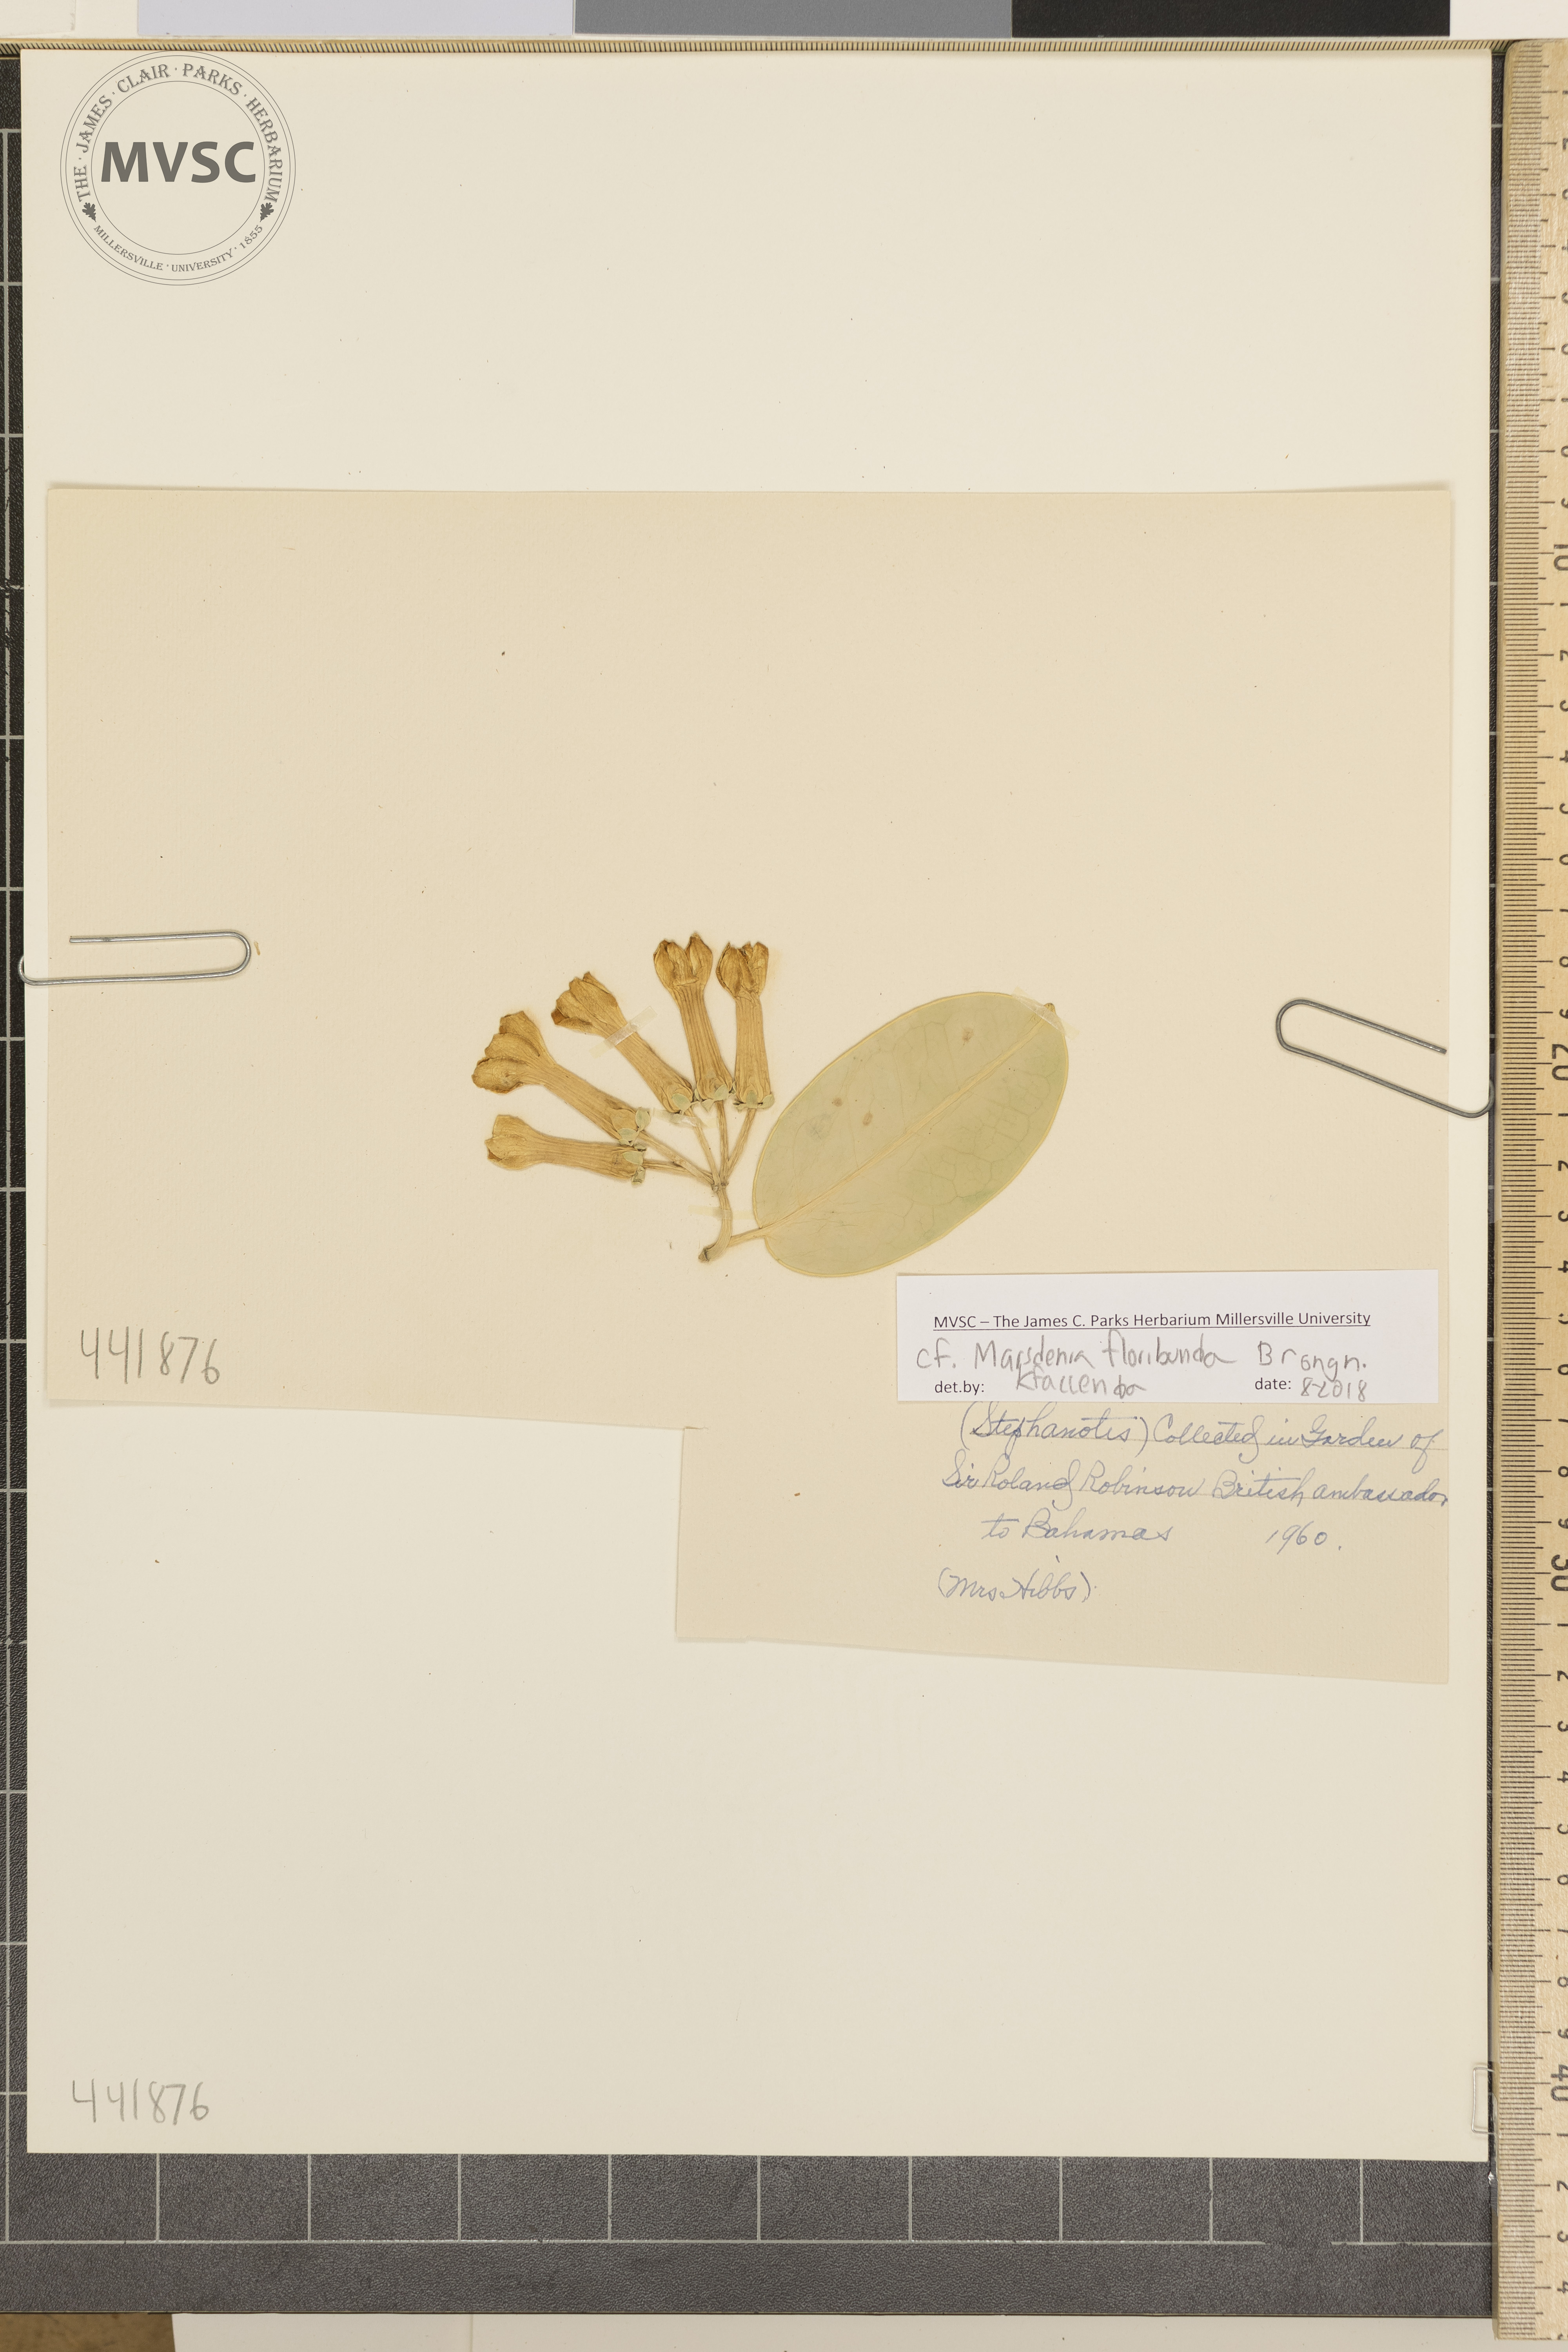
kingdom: Plantae
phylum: Tracheophyta
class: Magnoliopsida
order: Gentianales
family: Apocynaceae
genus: Stephanotis
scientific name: Stephanotis ernstmeyeri
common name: Madagascar jasmine
